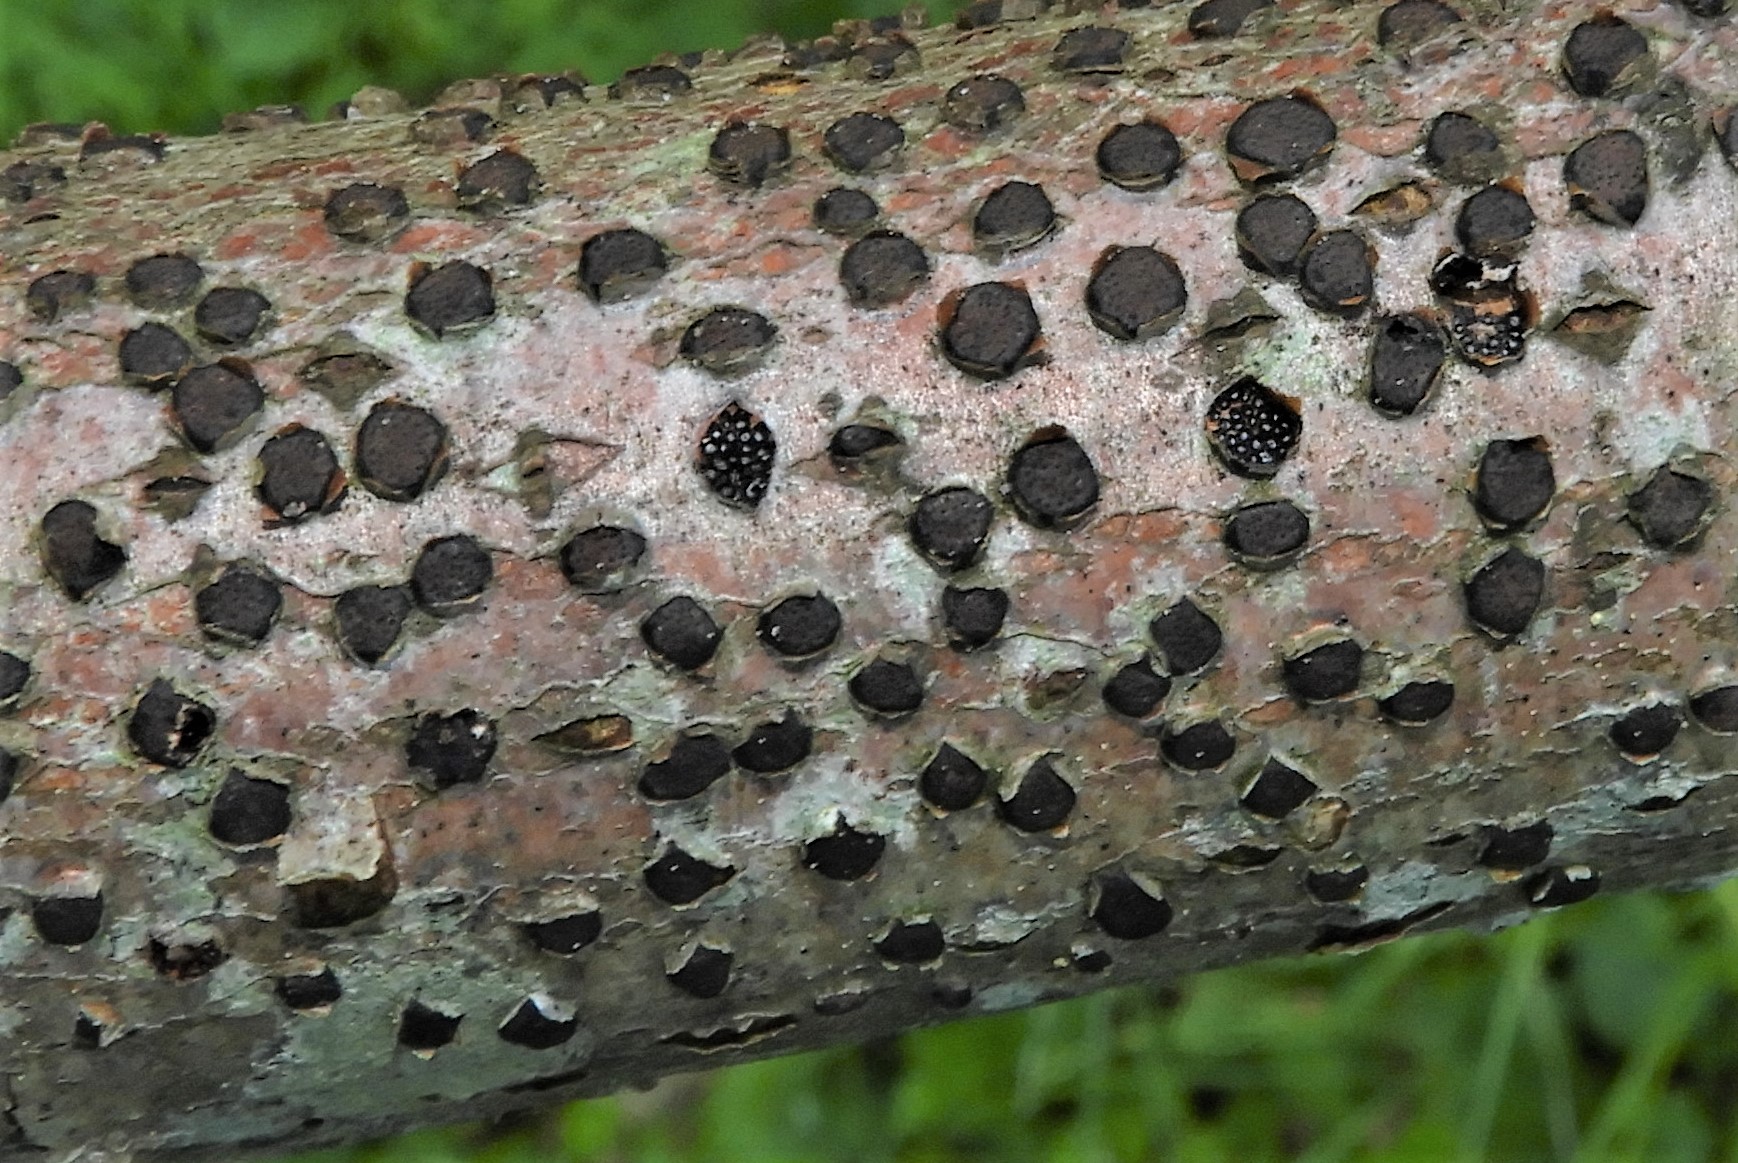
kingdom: Fungi
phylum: Ascomycota
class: Sordariomycetes
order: Xylariales
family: Diatrypaceae
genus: Diatrype
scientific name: Diatrype disciformis
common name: kant-kulskorpe
